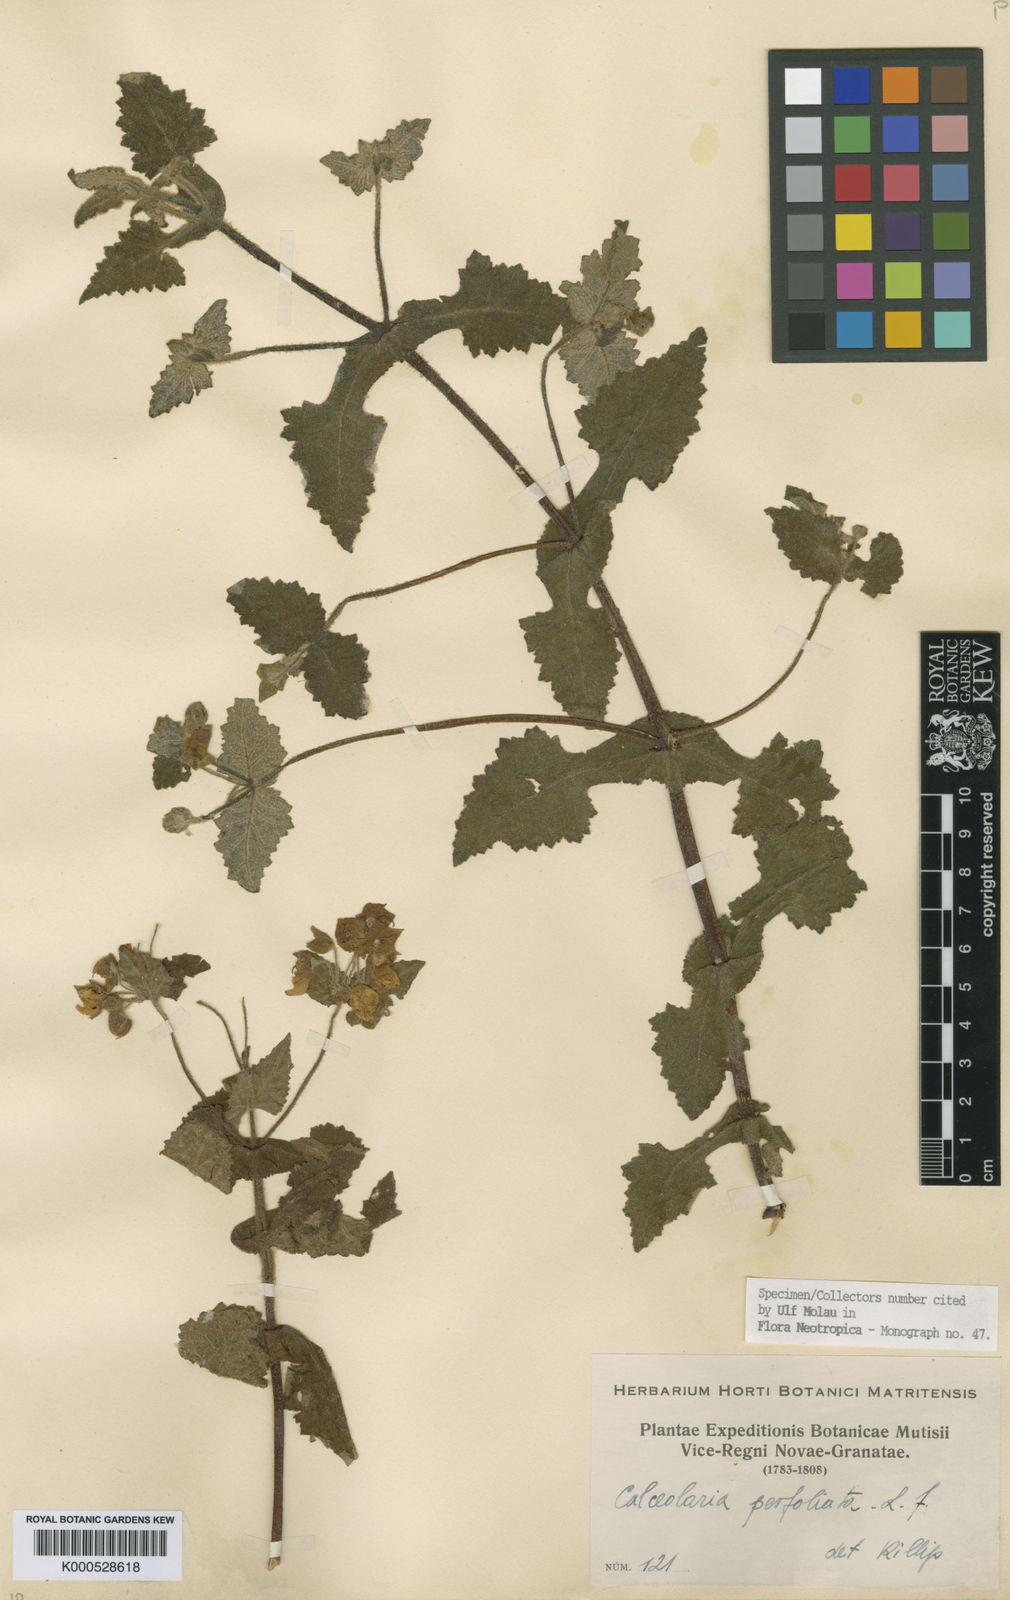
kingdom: Plantae
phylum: Tracheophyta
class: Magnoliopsida
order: Lamiales
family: Calceolariaceae
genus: Calceolaria
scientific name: Calceolaria perfoliata
